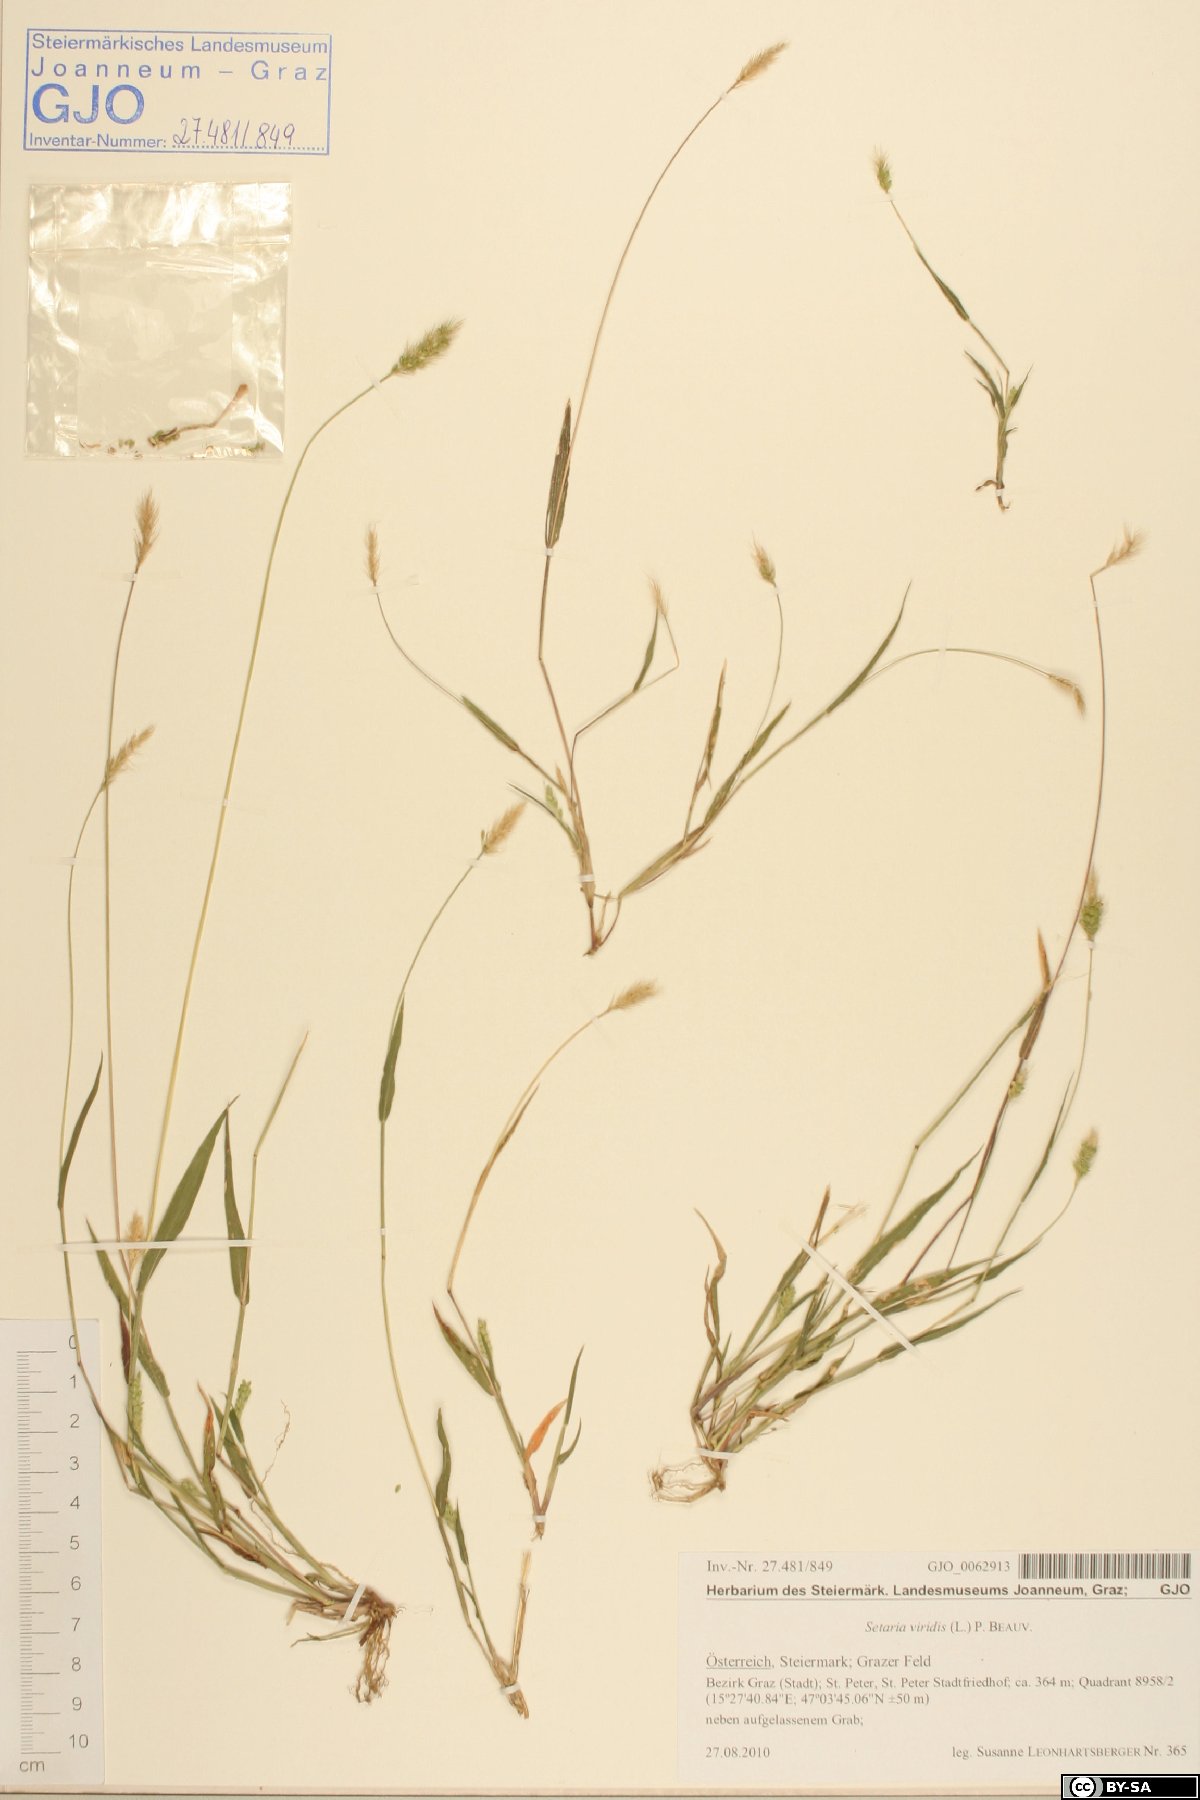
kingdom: Plantae
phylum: Tracheophyta
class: Liliopsida
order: Poales
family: Poaceae
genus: Setaria
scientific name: Setaria viridis
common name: Green bristlegrass
